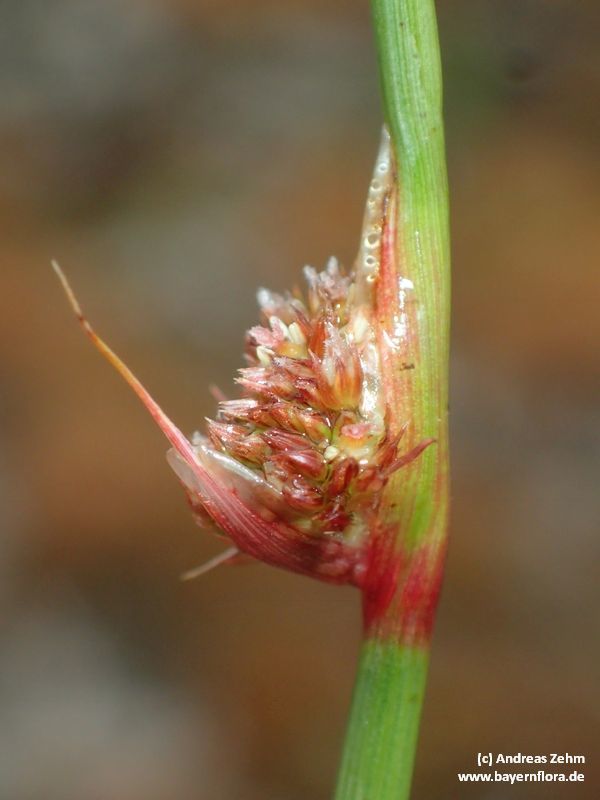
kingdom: Plantae
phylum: Tracheophyta
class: Liliopsida
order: Poales
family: Juncaceae
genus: Juncus
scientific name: Juncus conglomeratus
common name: Compact rush
